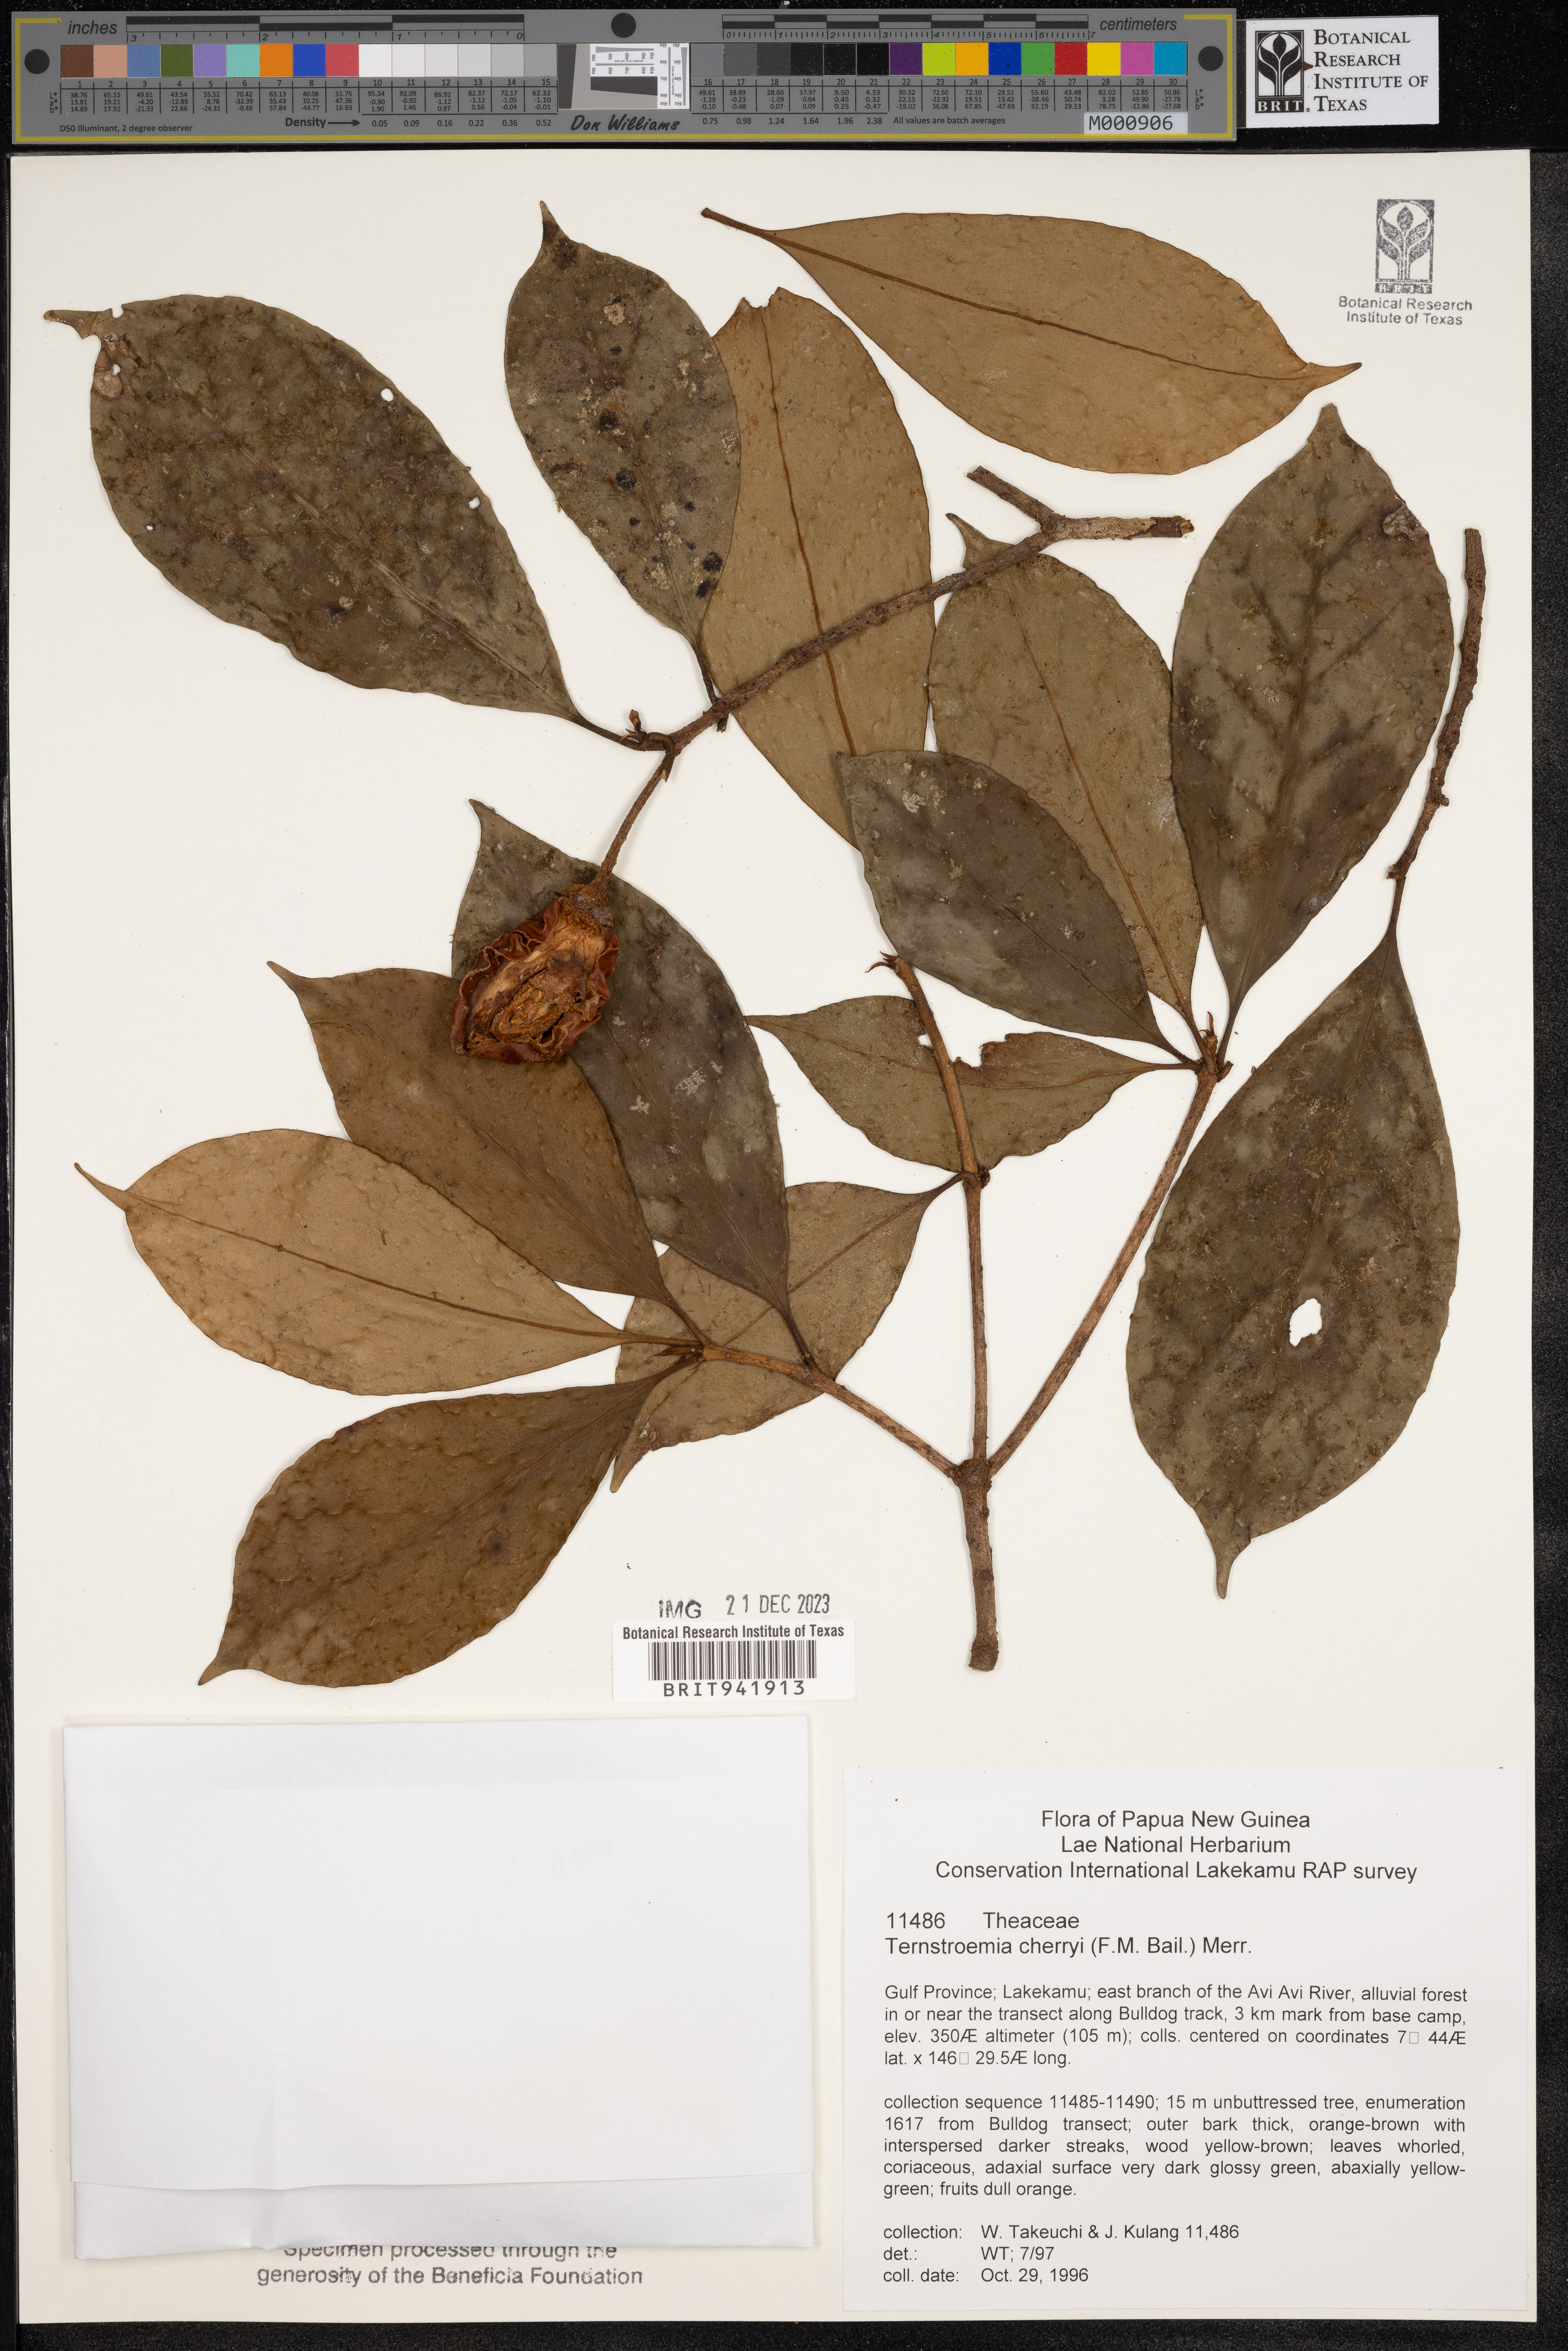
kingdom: Plantae
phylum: Tracheophyta
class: Magnoliopsida
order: Ericales
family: Theaceae
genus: Terustroemia
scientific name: Terustroemia
